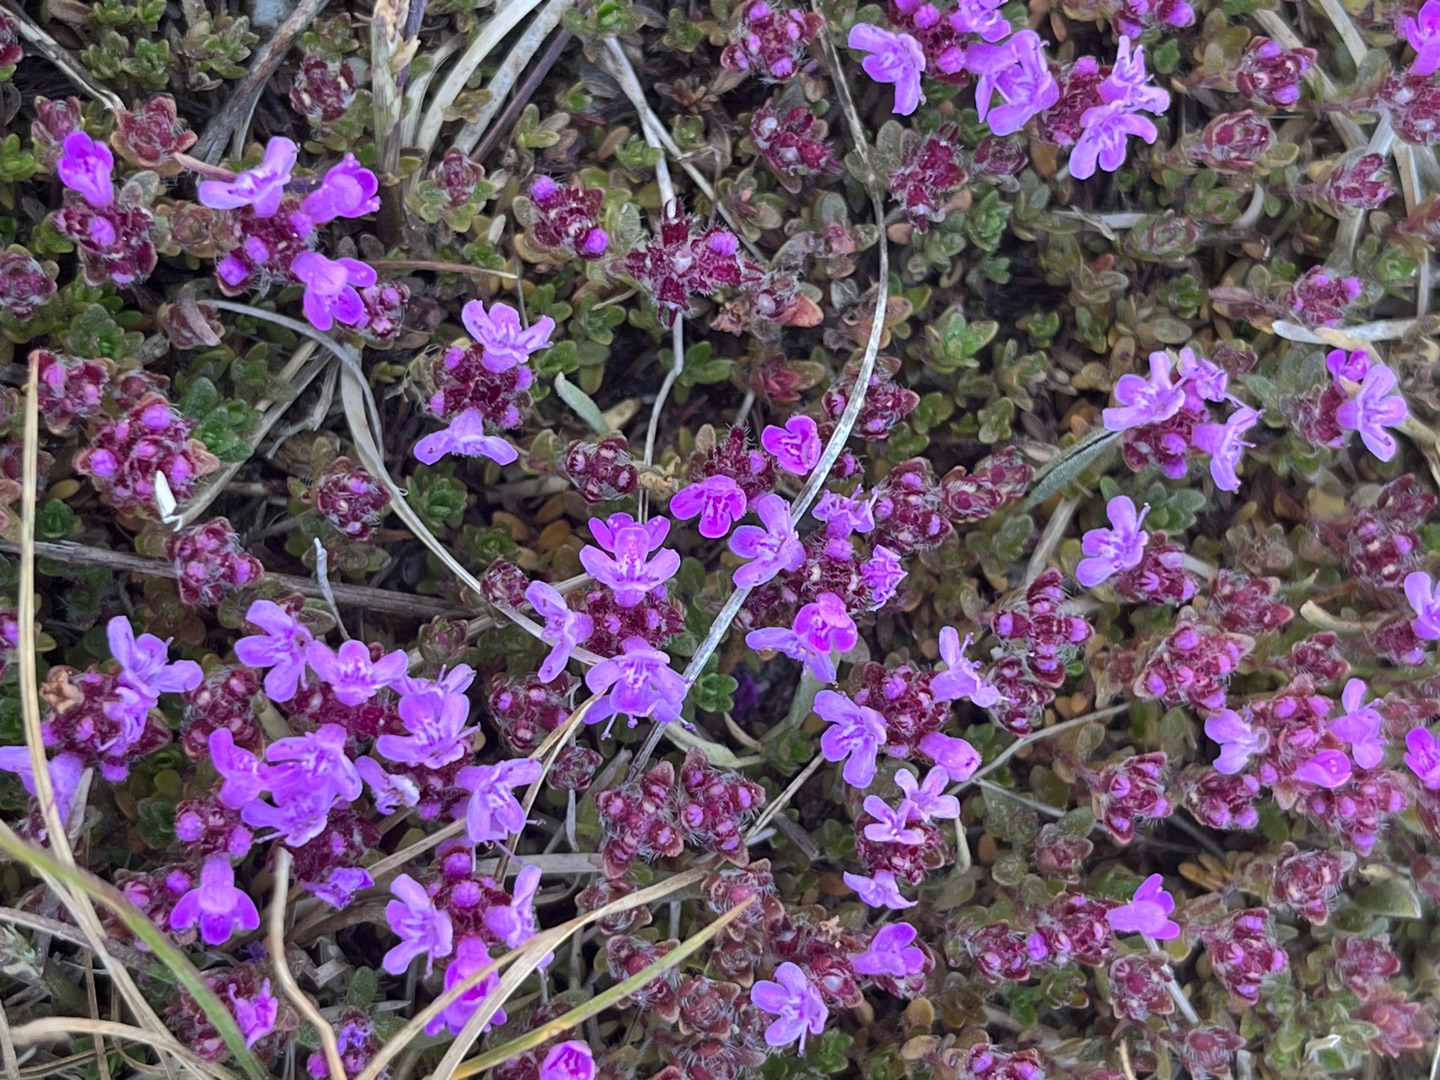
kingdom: Plantae
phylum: Tracheophyta
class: Magnoliopsida
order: Lamiales
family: Lamiaceae
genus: Thymus
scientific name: Thymus serpyllum
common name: Smalbladet timian
